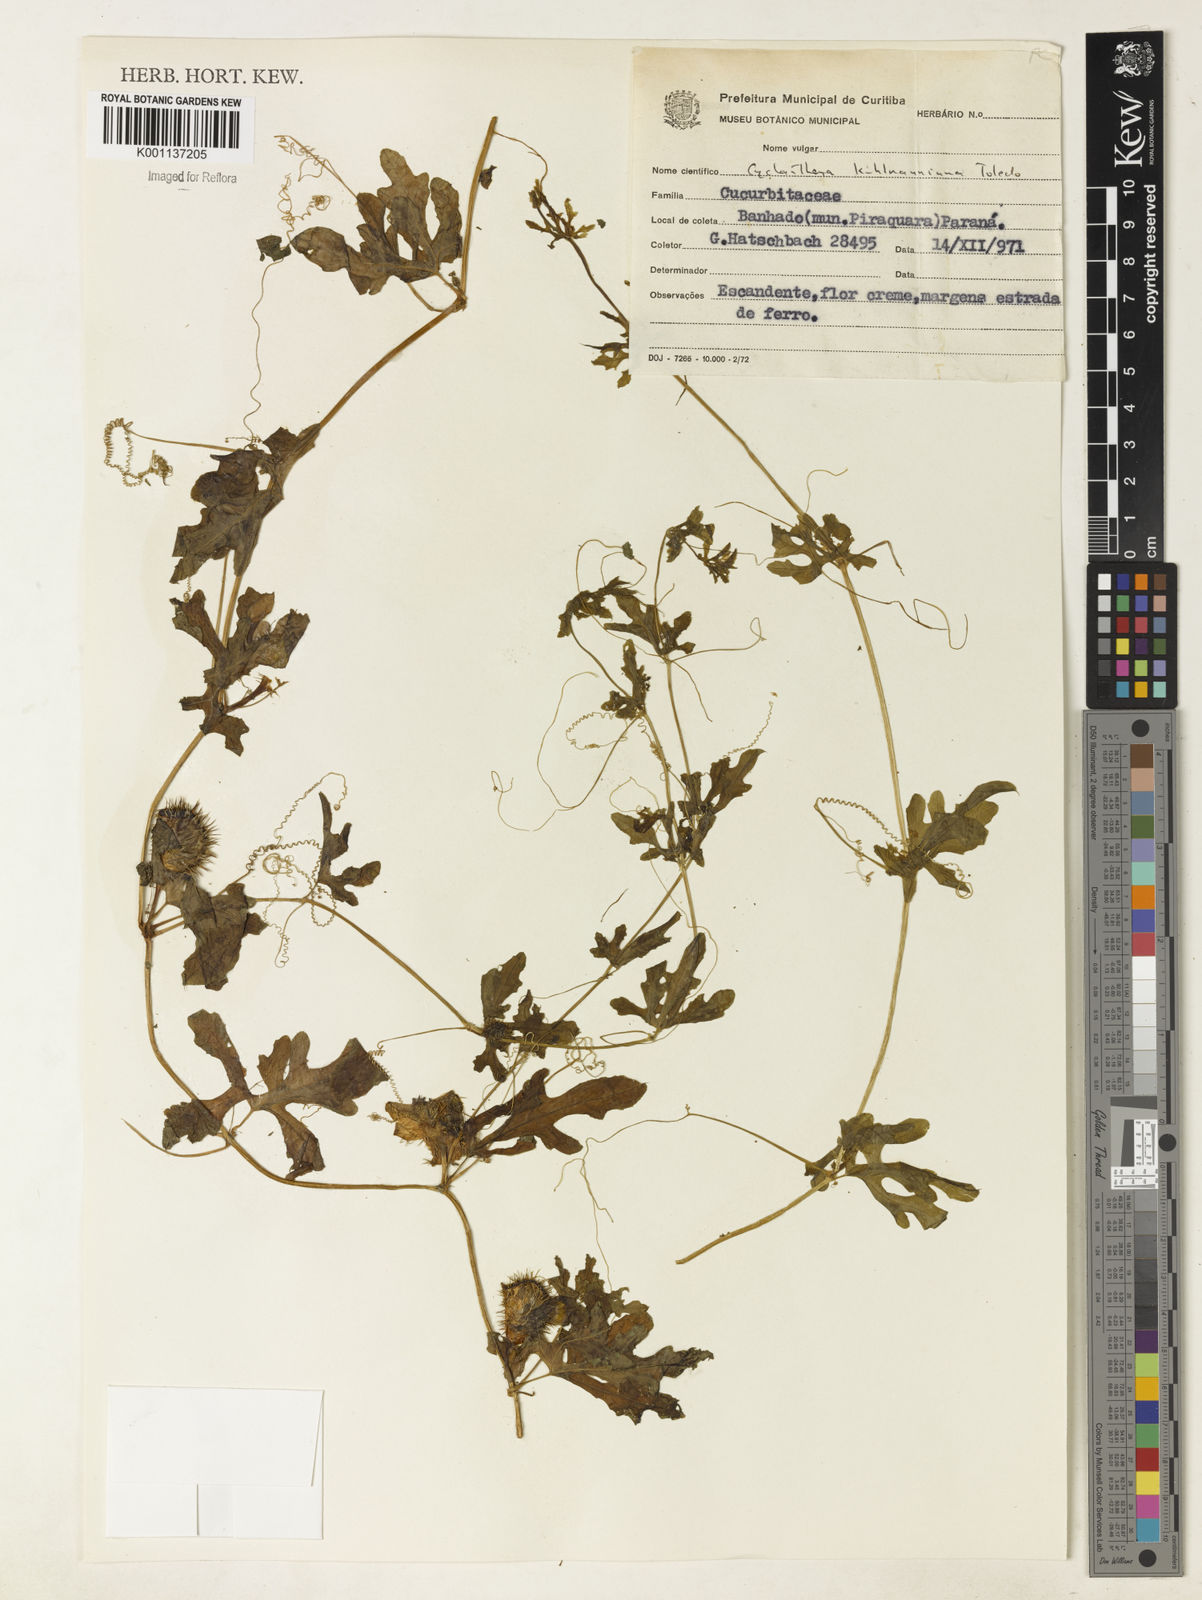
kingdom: Plantae
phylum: Tracheophyta
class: Magnoliopsida
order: Cucurbitales
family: Cucurbitaceae
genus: Cyclanthera
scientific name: Cyclanthera tenuifolia
